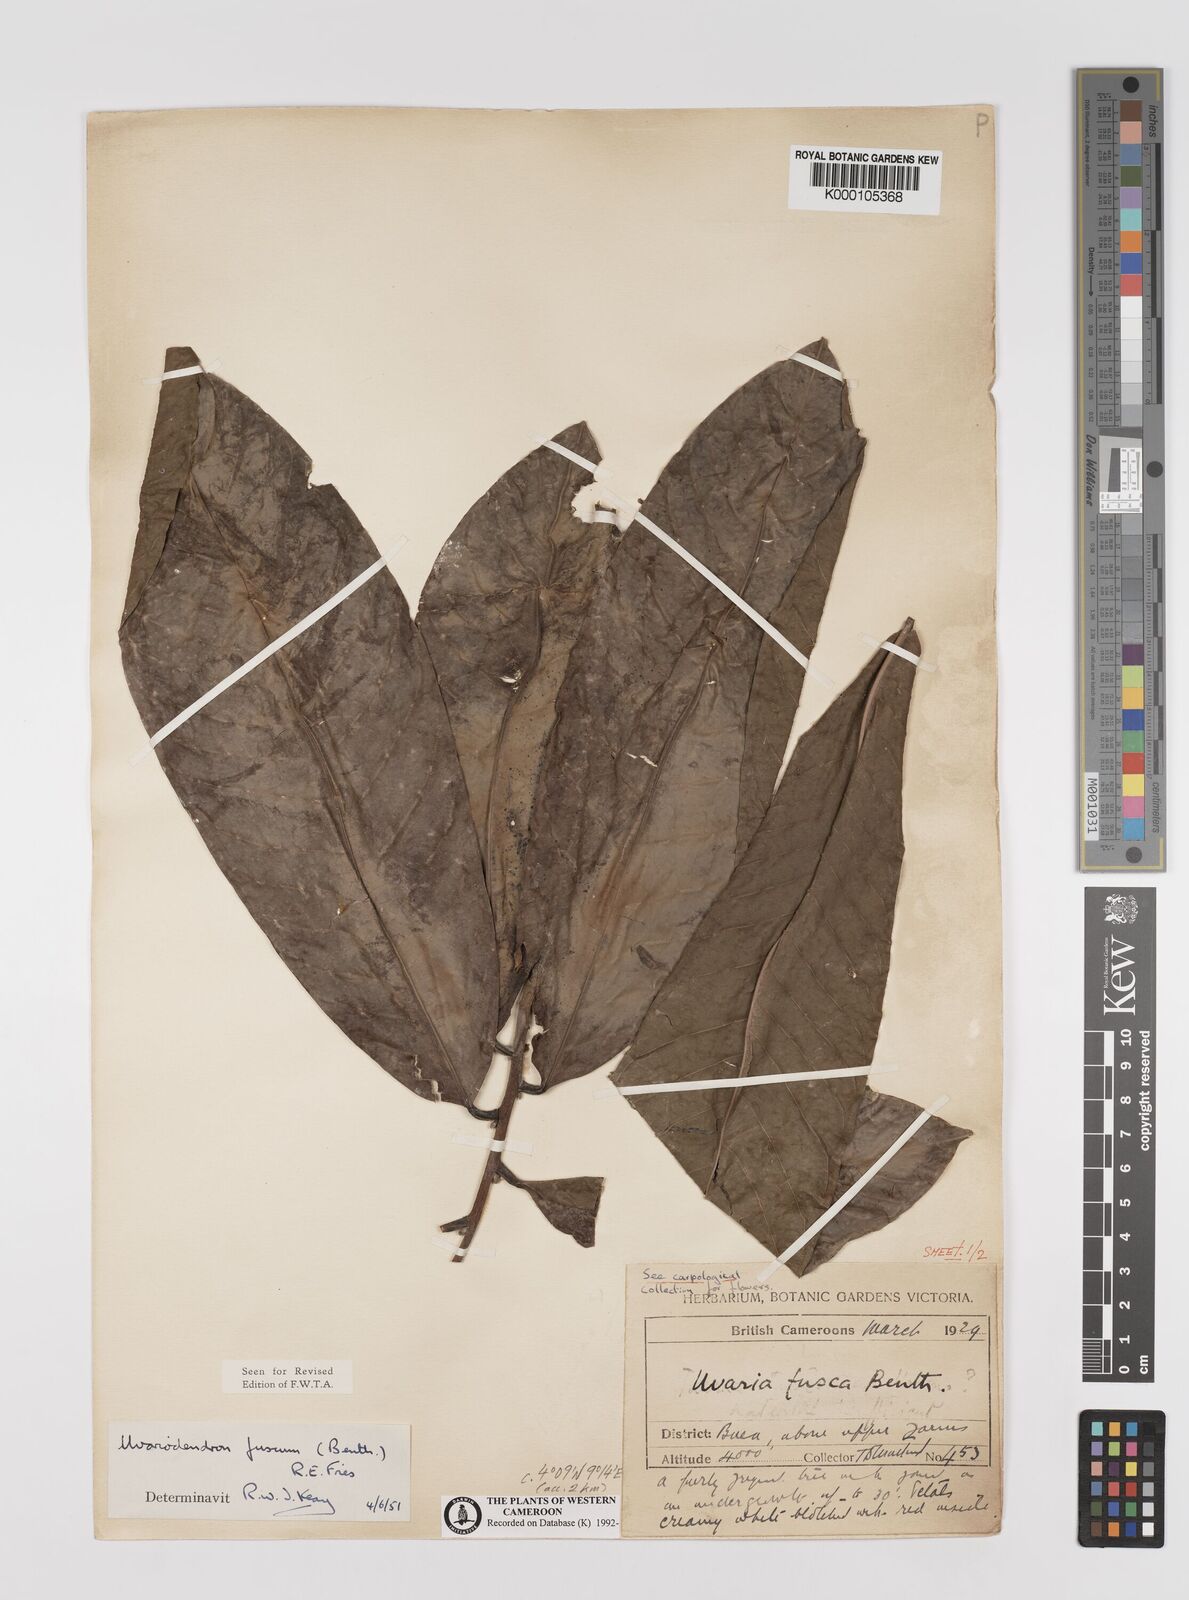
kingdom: Plantae
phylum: Tracheophyta
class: Magnoliopsida
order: Magnoliales
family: Annonaceae
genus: Uvariodendron
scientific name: Uvariodendron fuscum
